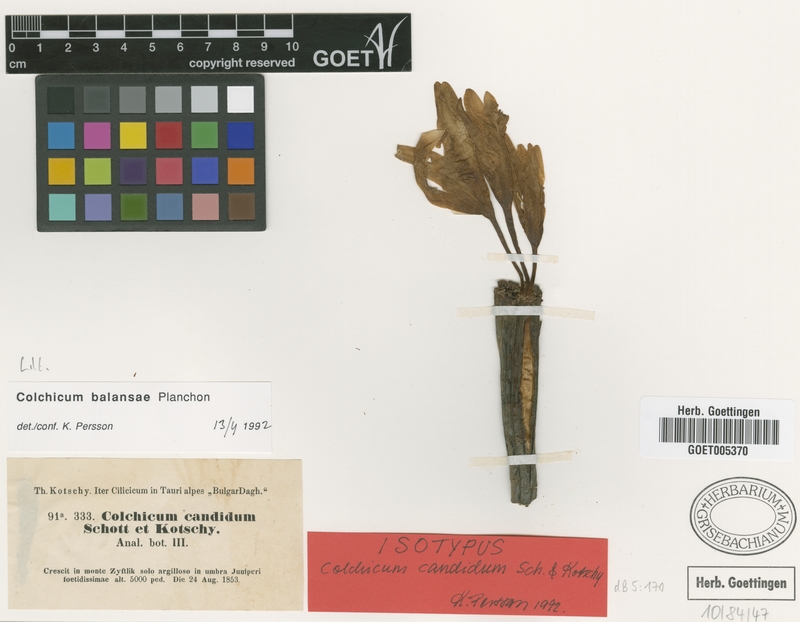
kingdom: Plantae
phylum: Tracheophyta
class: Liliopsida
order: Liliales
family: Colchicaceae
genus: Colchicum
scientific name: Colchicum balansae
